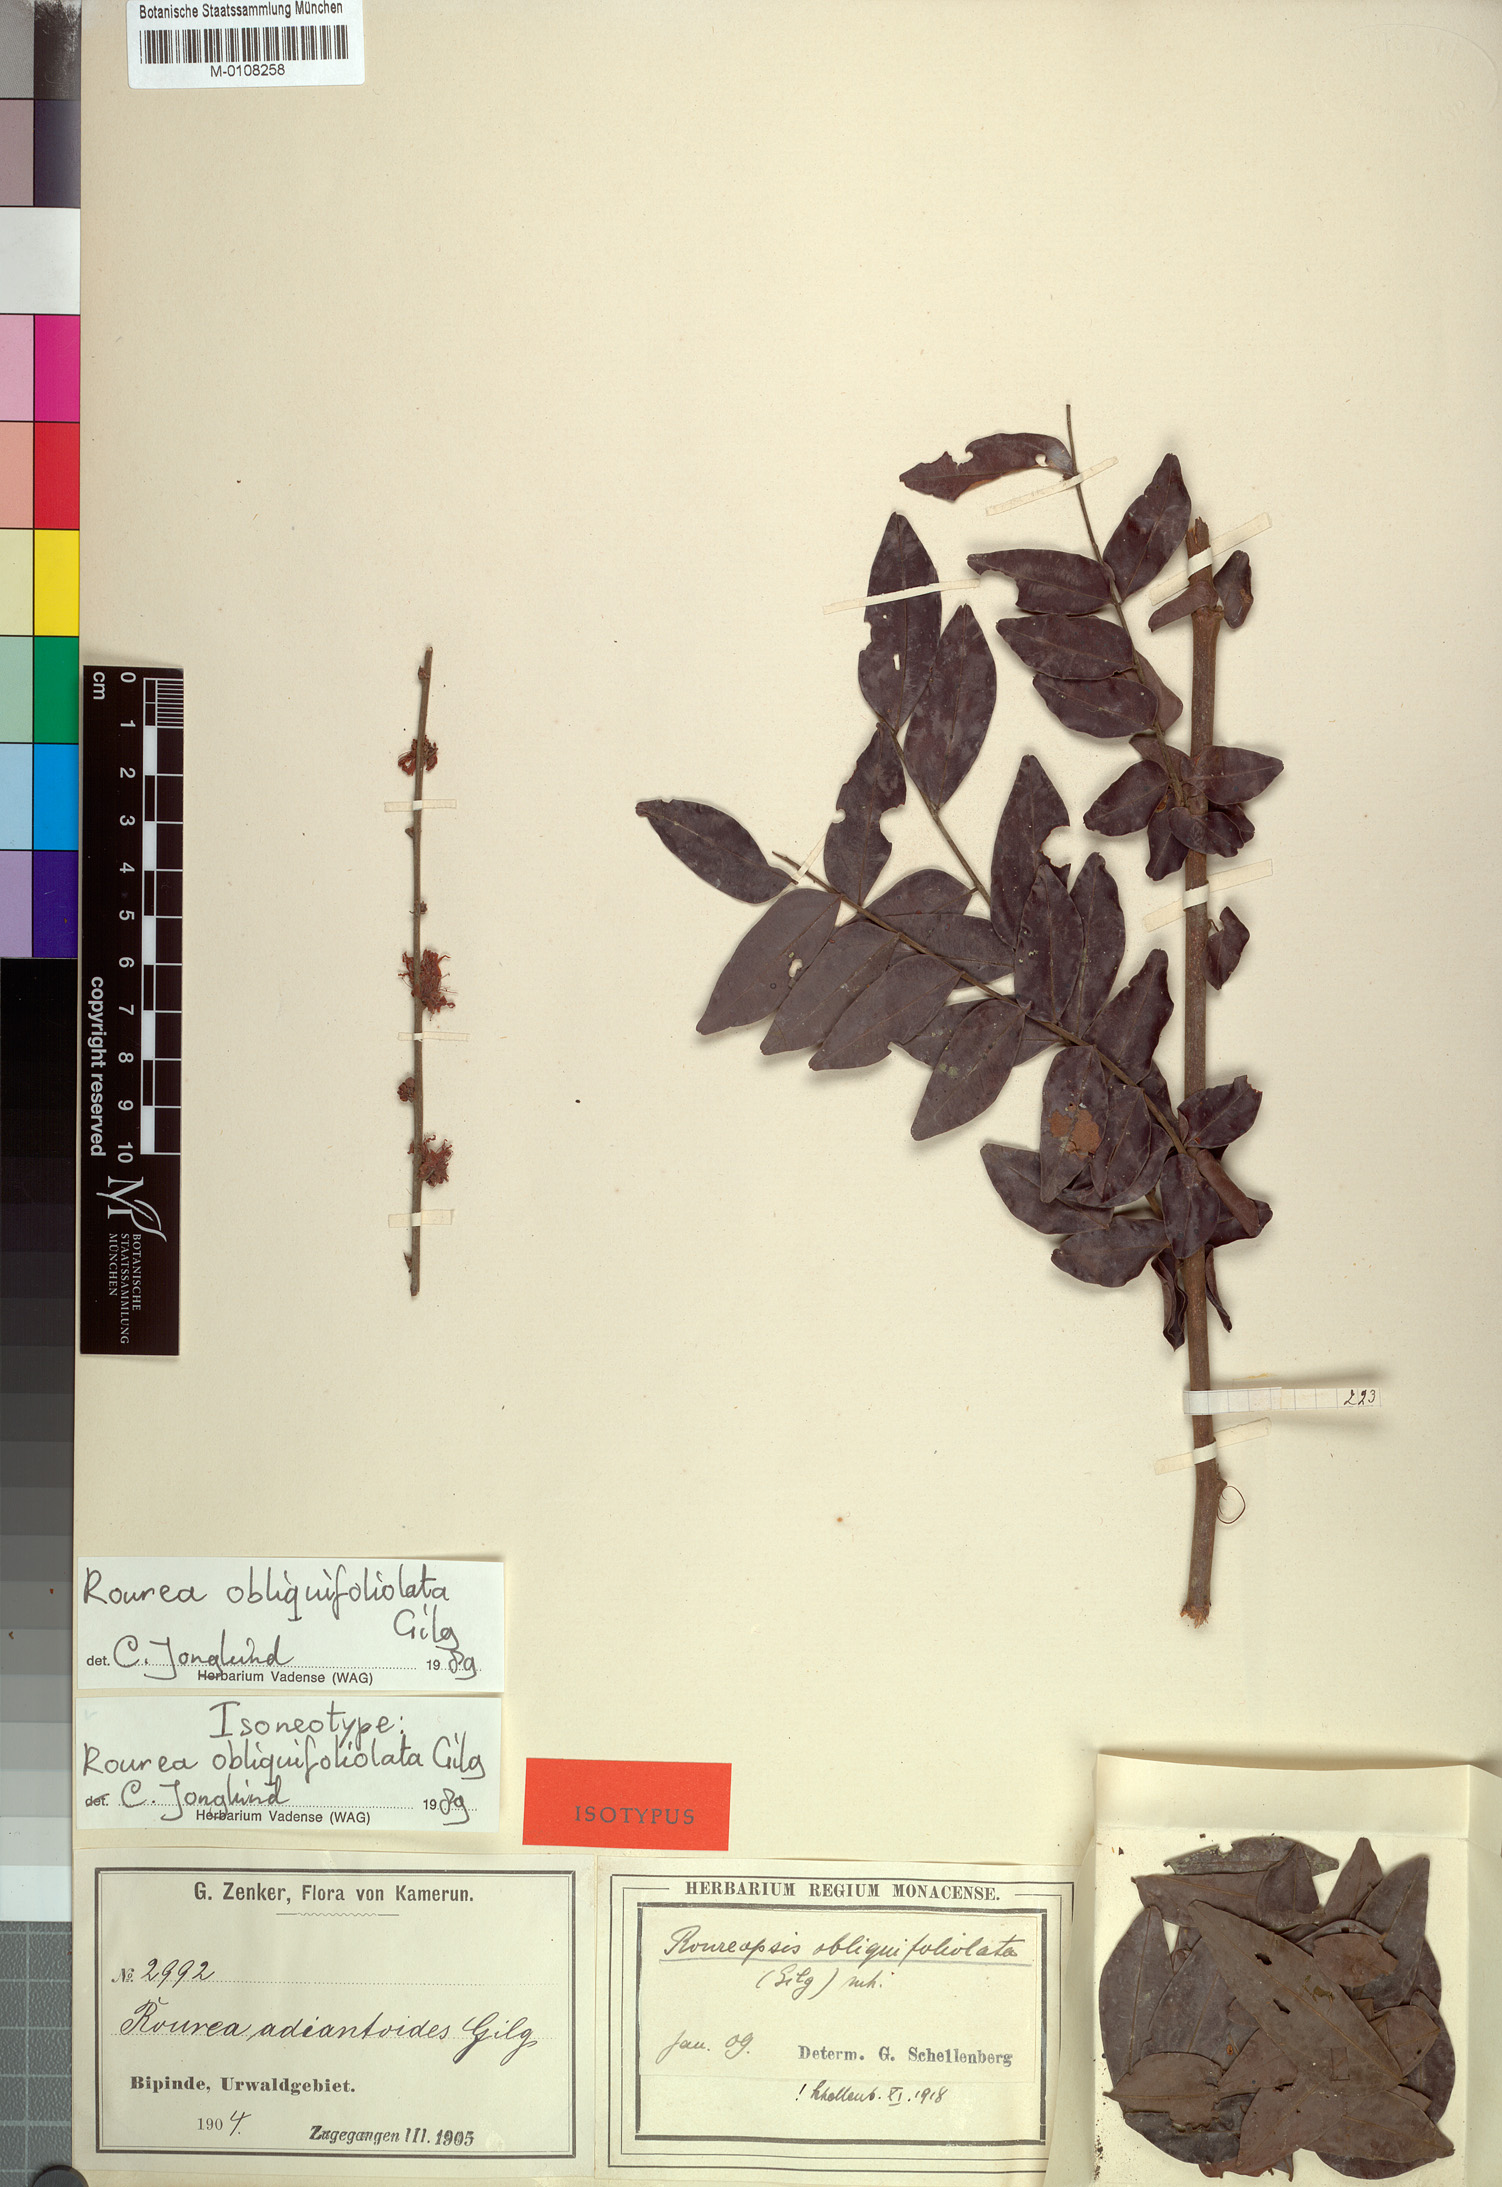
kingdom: Plantae
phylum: Tracheophyta
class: Magnoliopsida
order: Oxalidales
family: Connaraceae
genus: Rourea
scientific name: Rourea obliquifoliolata
